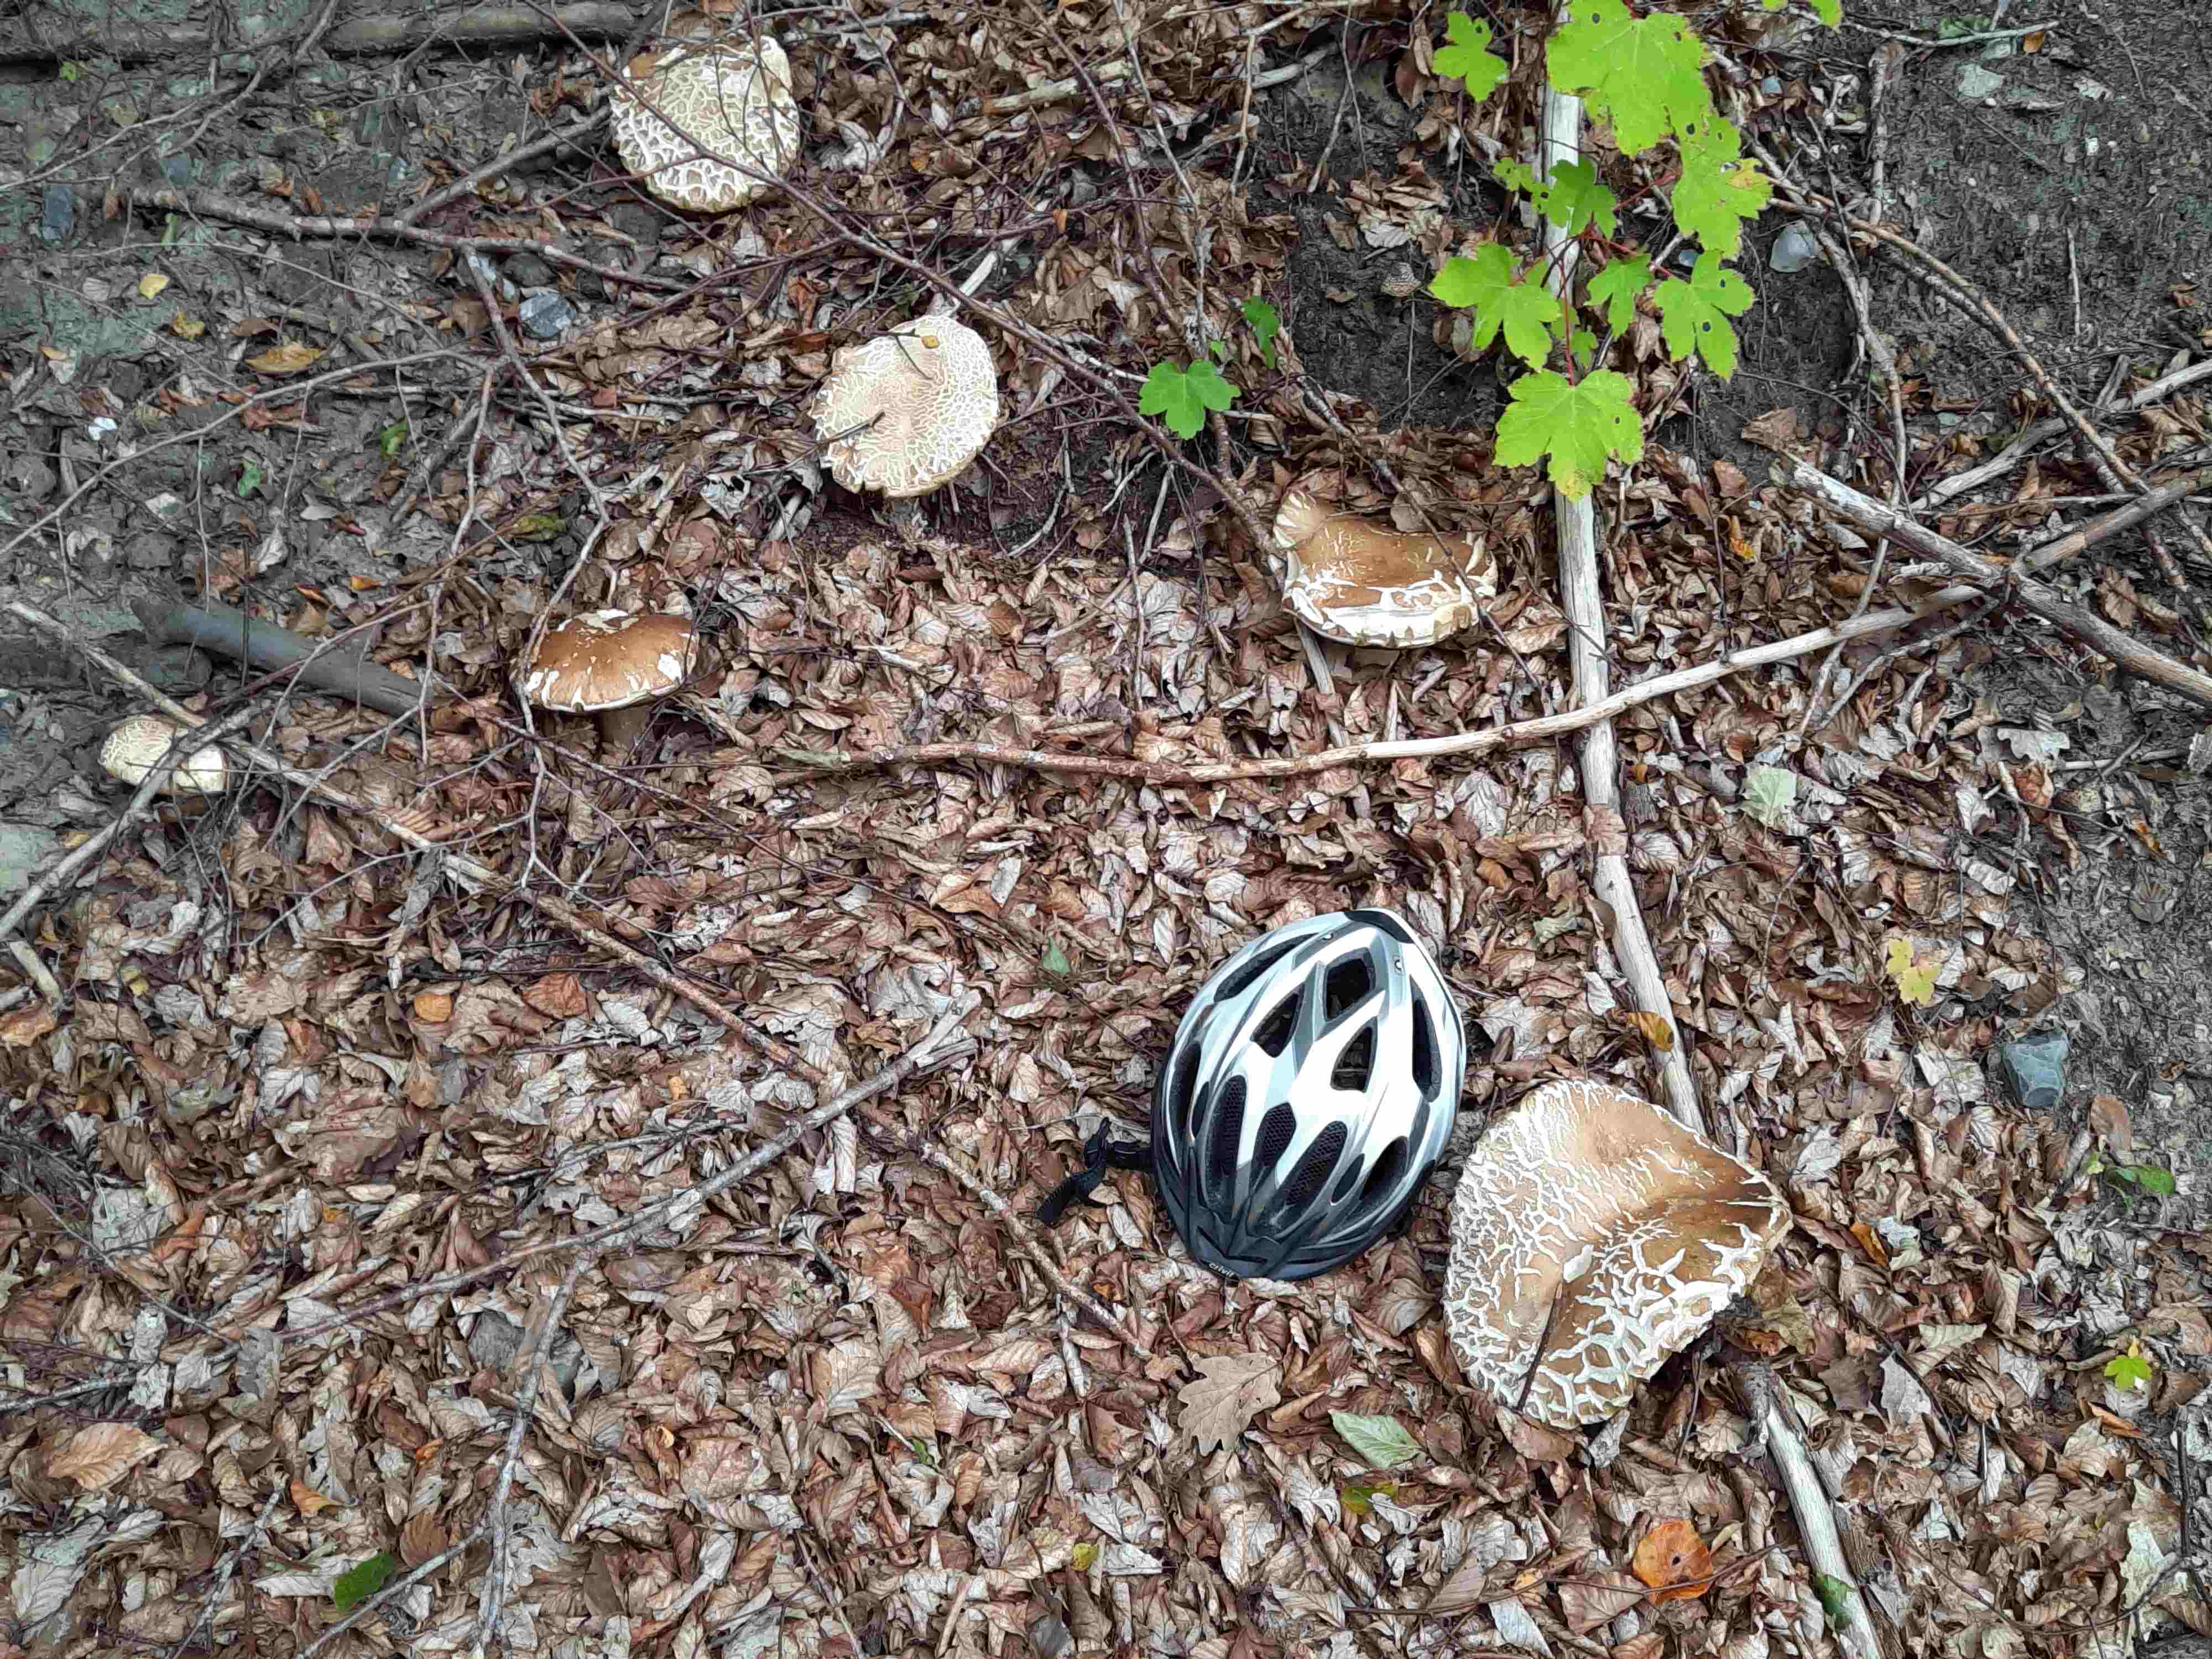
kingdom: Fungi
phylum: Basidiomycota
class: Agaricomycetes
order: Boletales
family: Boletaceae
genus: Boletus
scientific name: Boletus reticulatus
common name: sommer-rørhat
